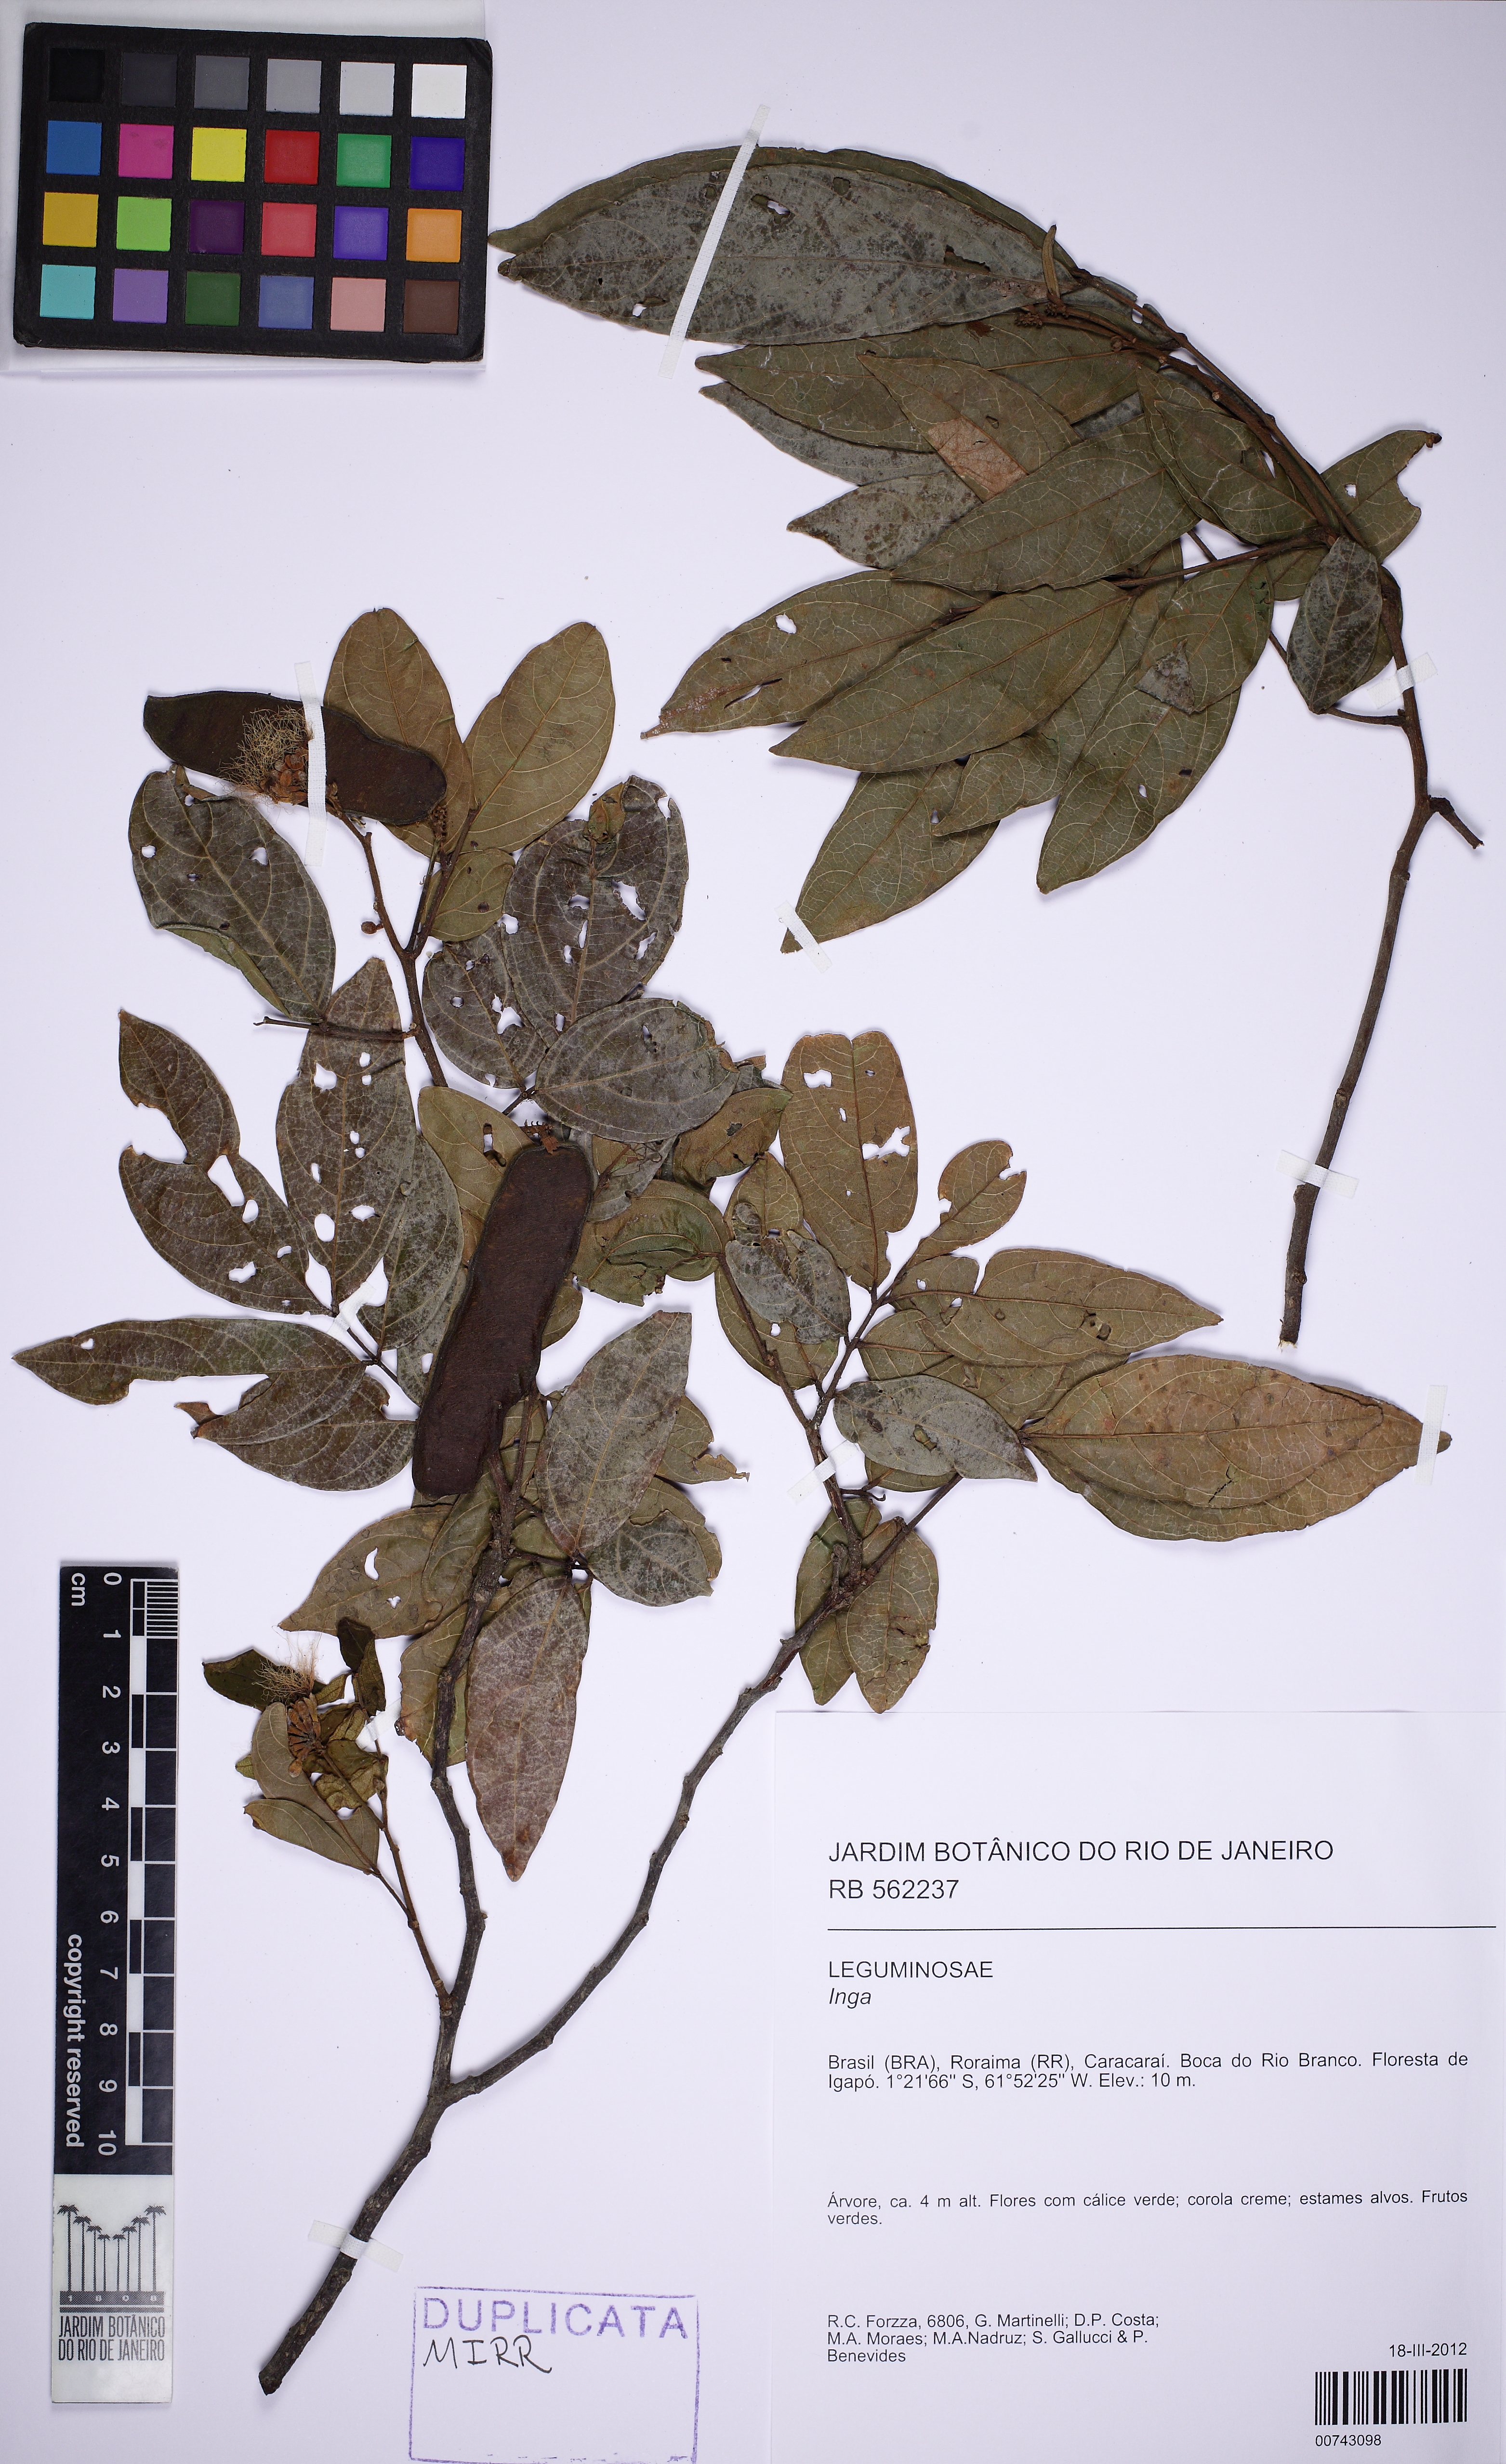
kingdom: Plantae
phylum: Tracheophyta
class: Magnoliopsida
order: Fabales
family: Fabaceae
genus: Inga
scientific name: Inga
